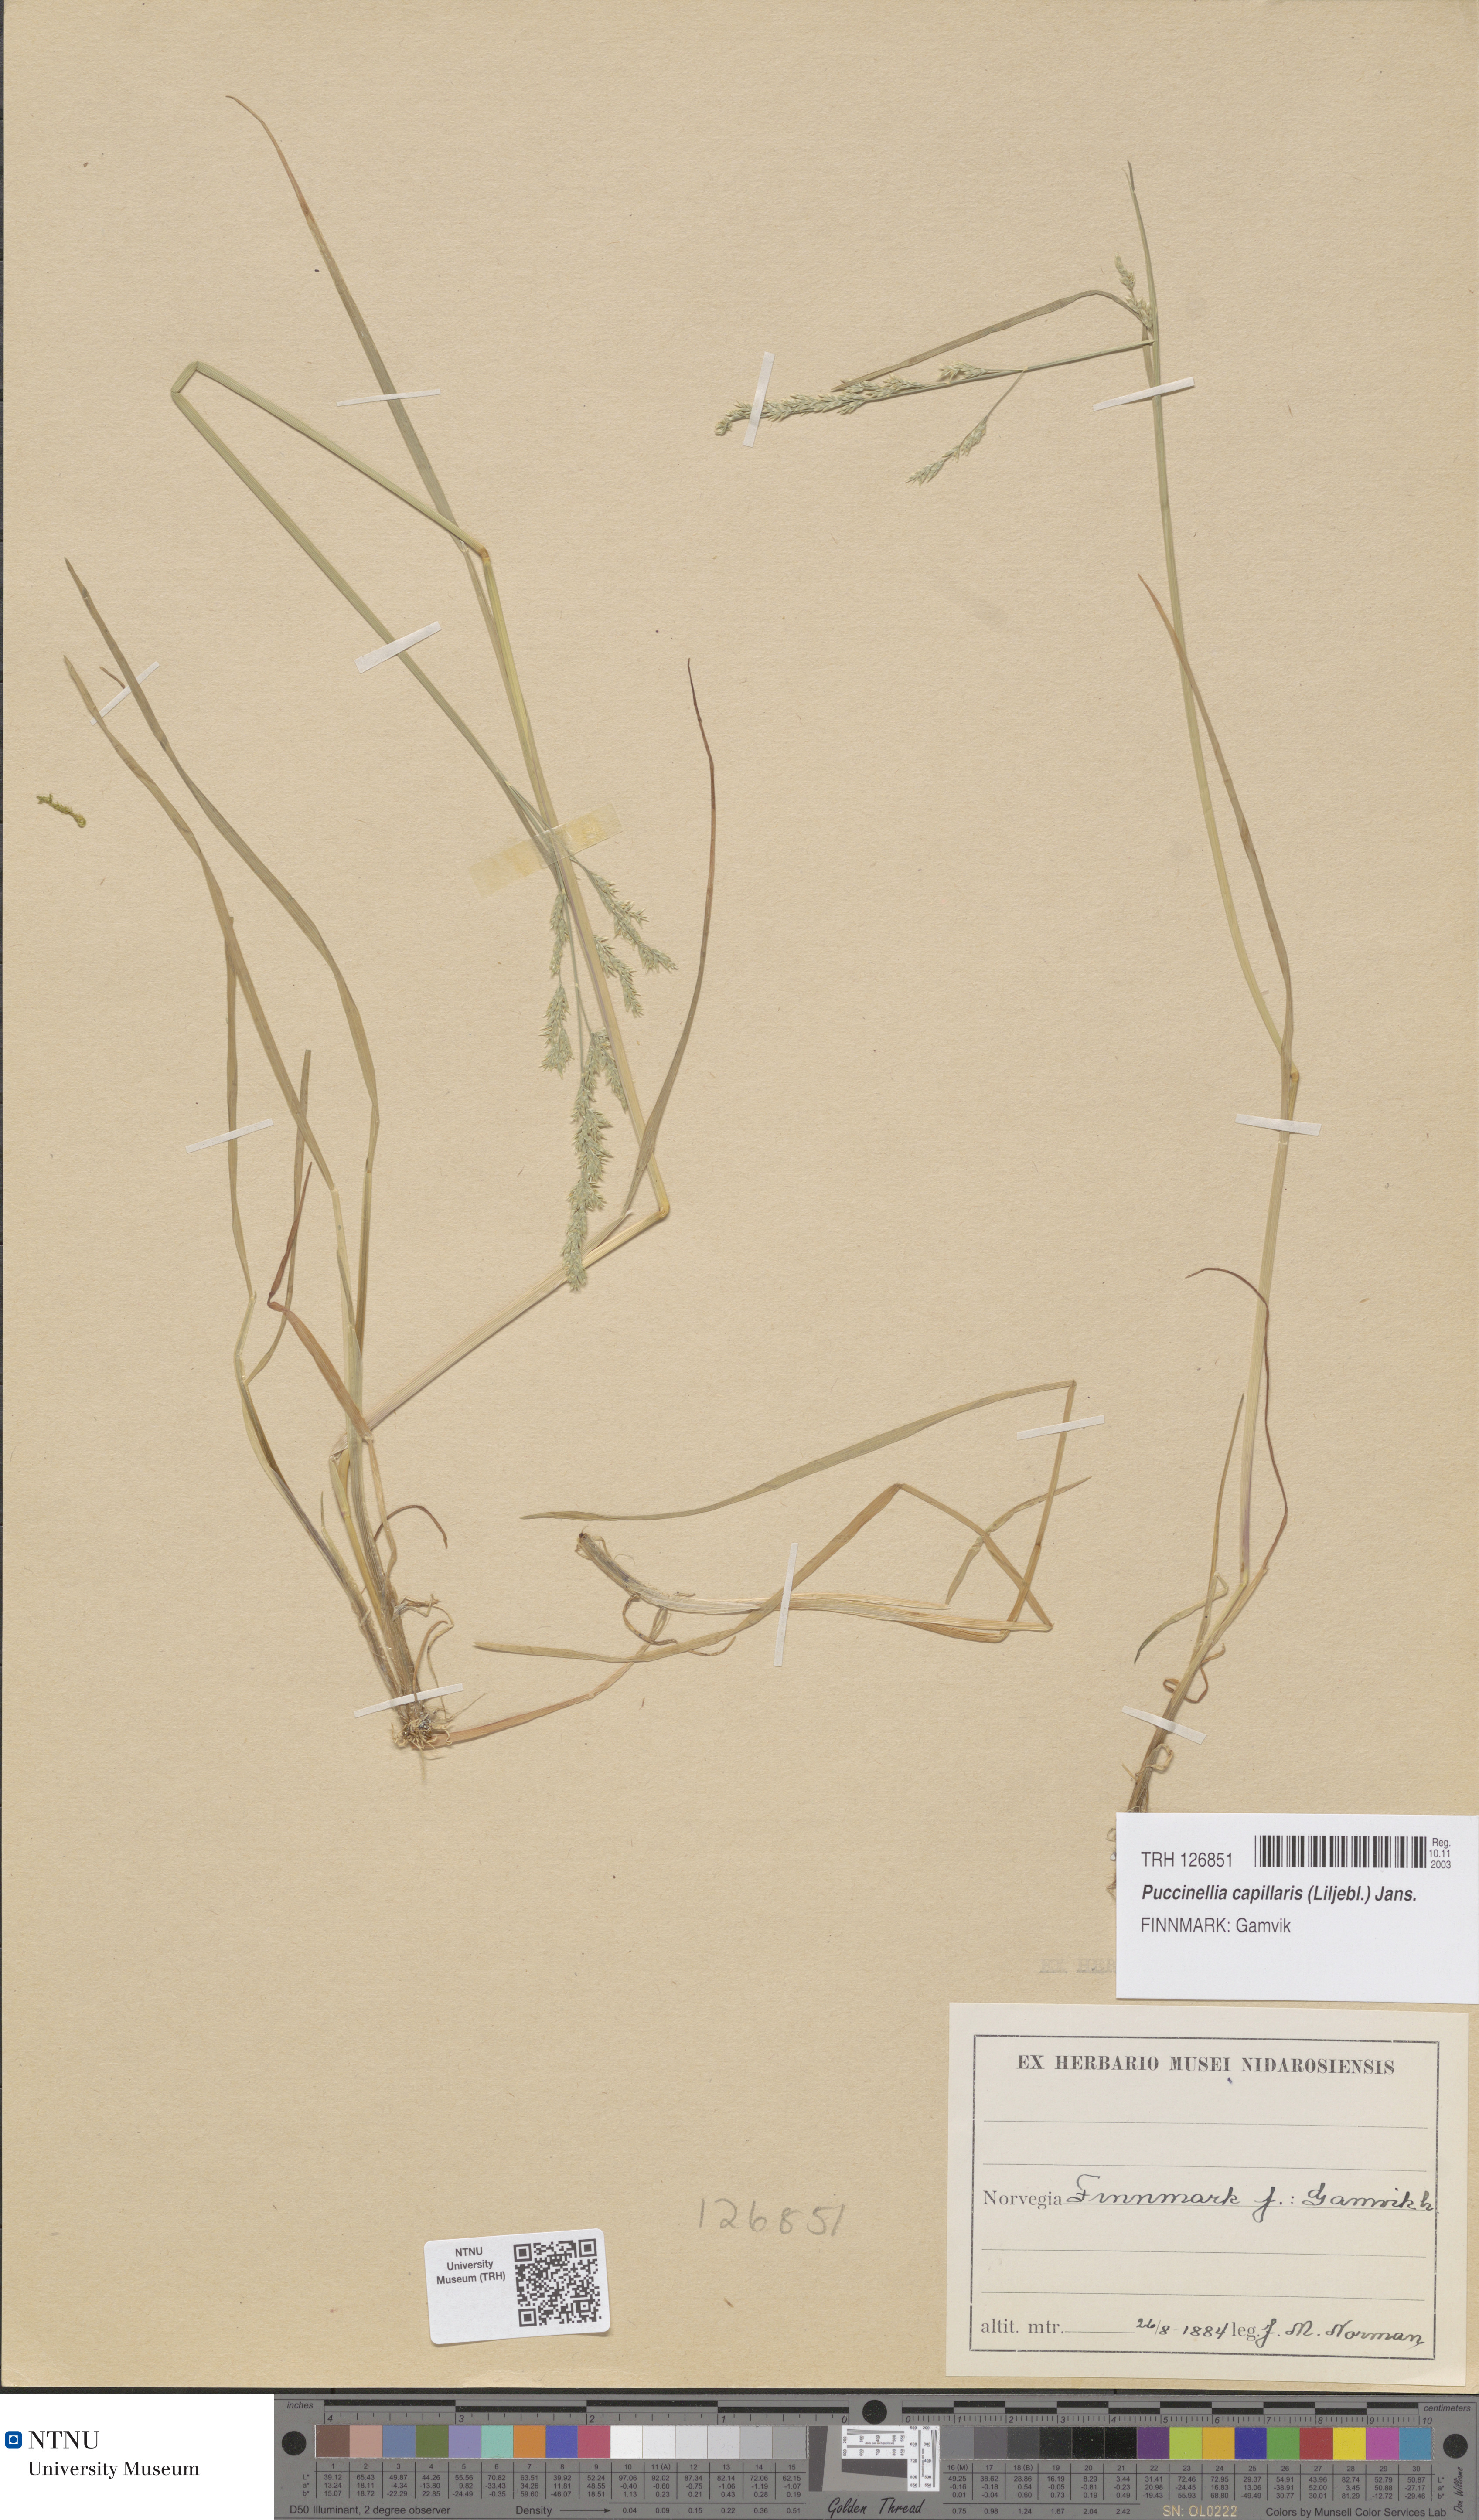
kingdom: Plantae
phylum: Tracheophyta
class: Liliopsida
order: Poales
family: Poaceae
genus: Puccinellia
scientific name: Puccinellia distans
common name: Weeping alkaligrass
